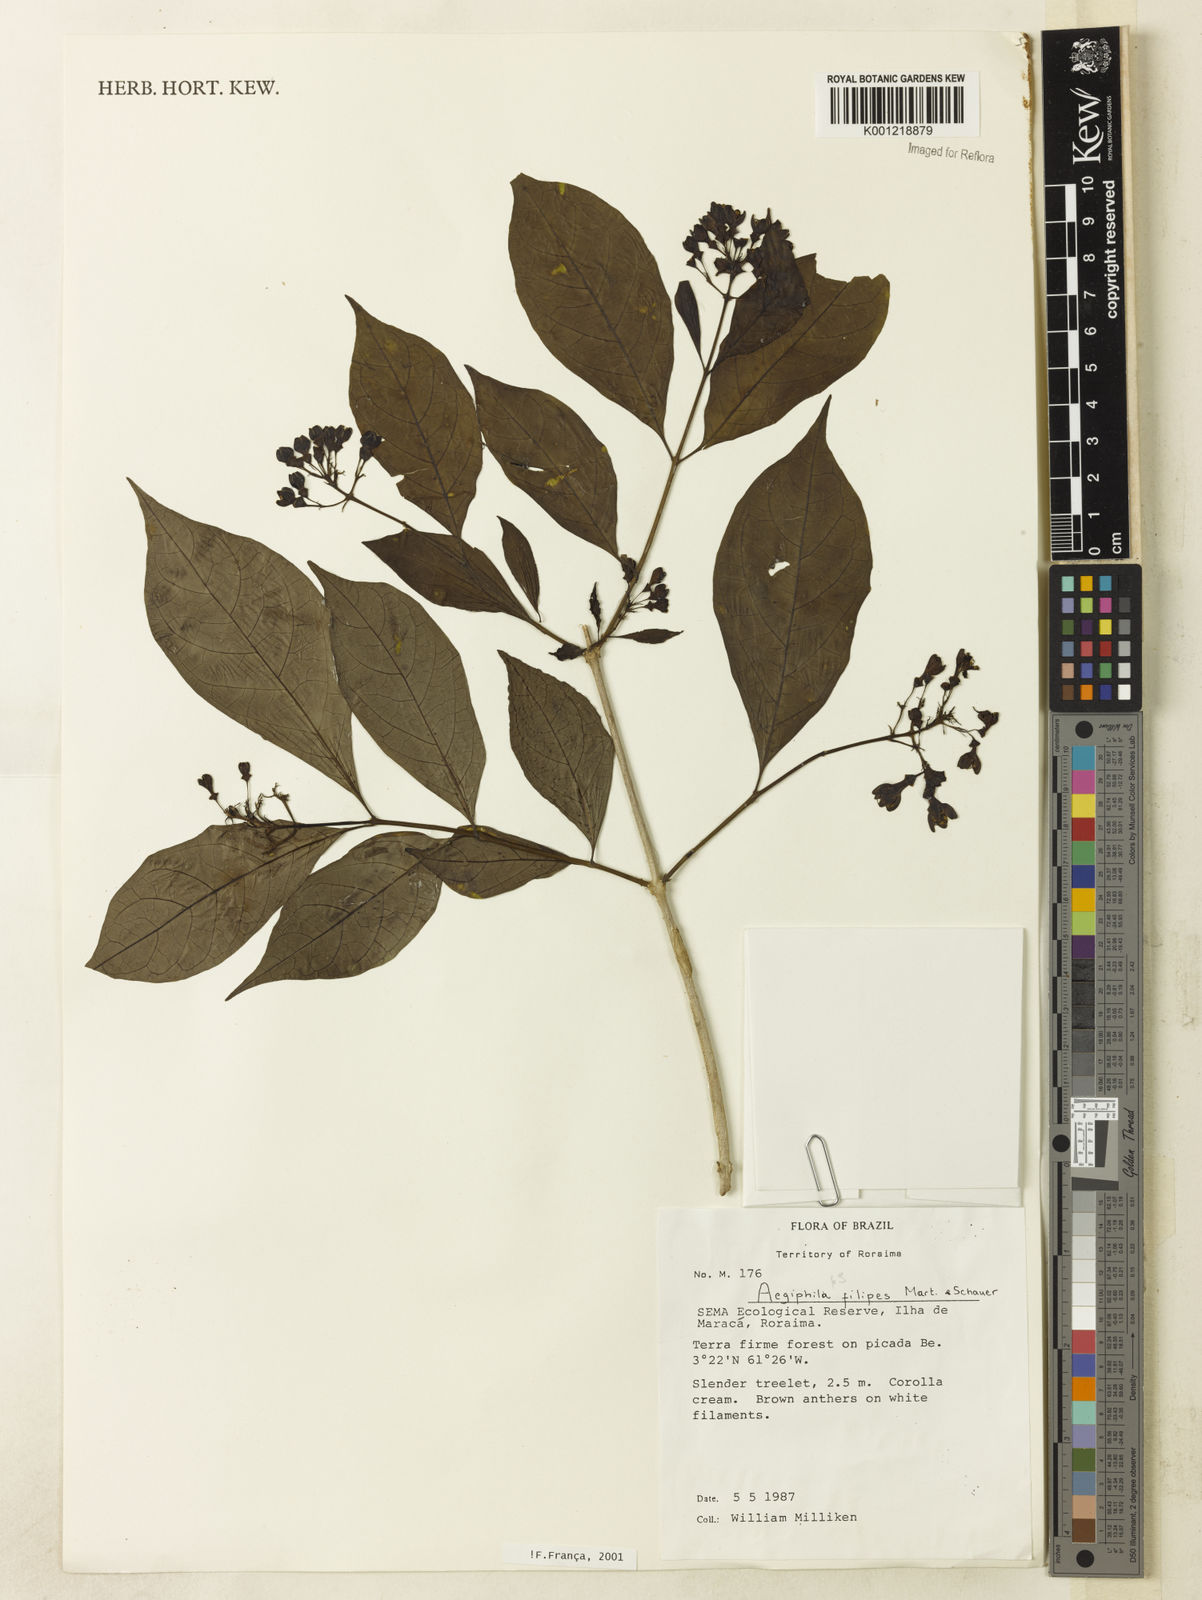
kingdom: Plantae
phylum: Tracheophyta
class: Magnoliopsida
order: Lamiales
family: Lamiaceae
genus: Aegiphila
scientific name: Aegiphila filipes
